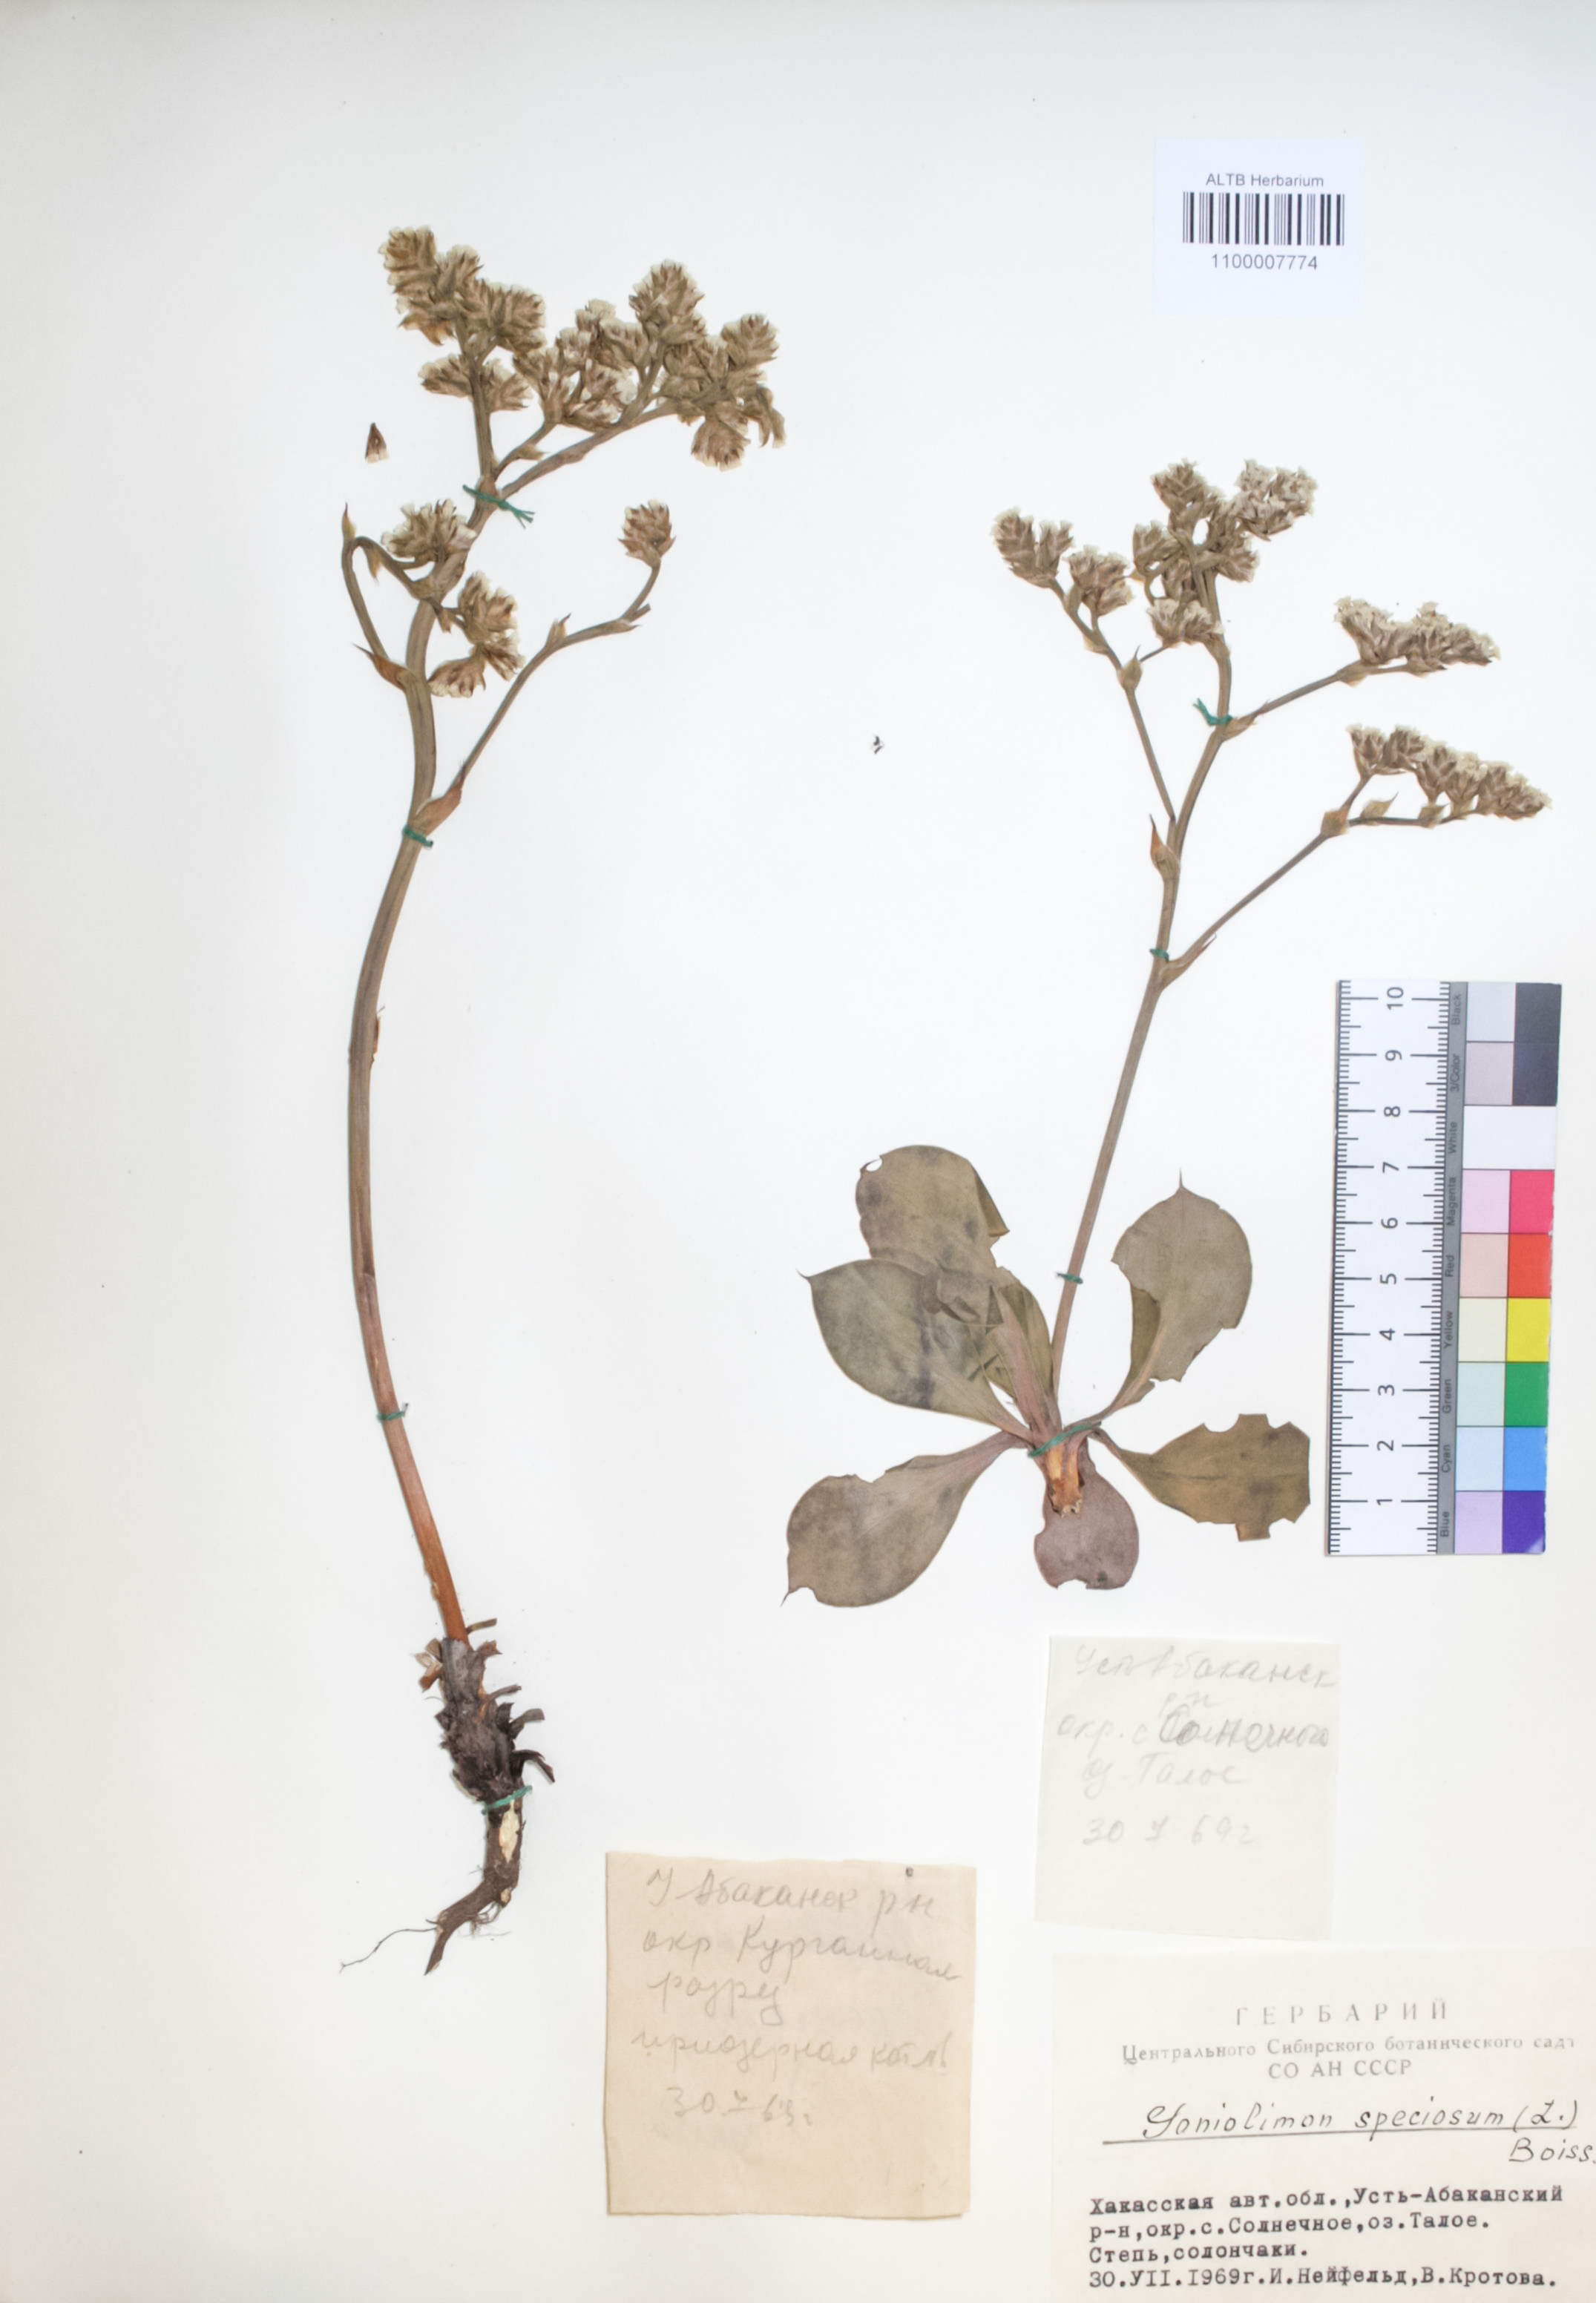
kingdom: Plantae
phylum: Tracheophyta
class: Magnoliopsida
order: Caryophyllales
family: Plumbaginaceae
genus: Goniolimon
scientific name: Goniolimon speciosum
